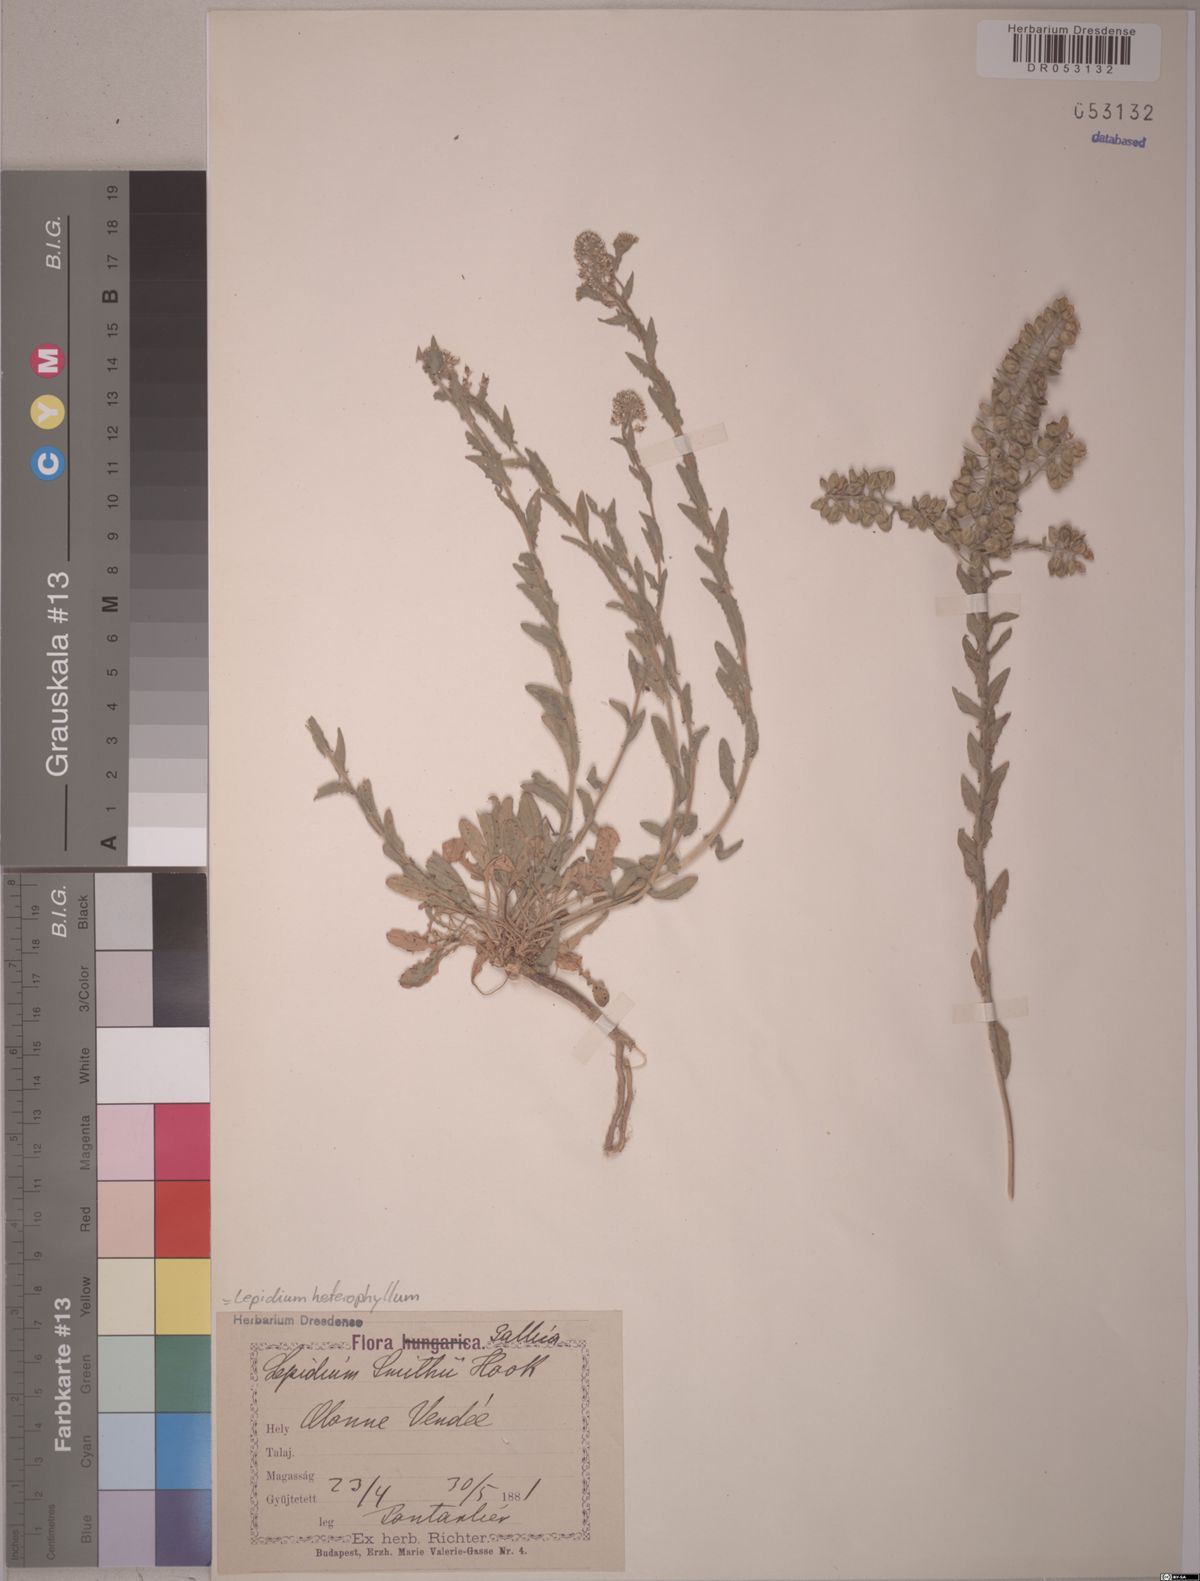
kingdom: Plantae
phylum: Tracheophyta
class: Magnoliopsida
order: Brassicales
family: Brassicaceae
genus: Lepidium
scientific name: Lepidium heterophyllum
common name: Smith's pepperwort
